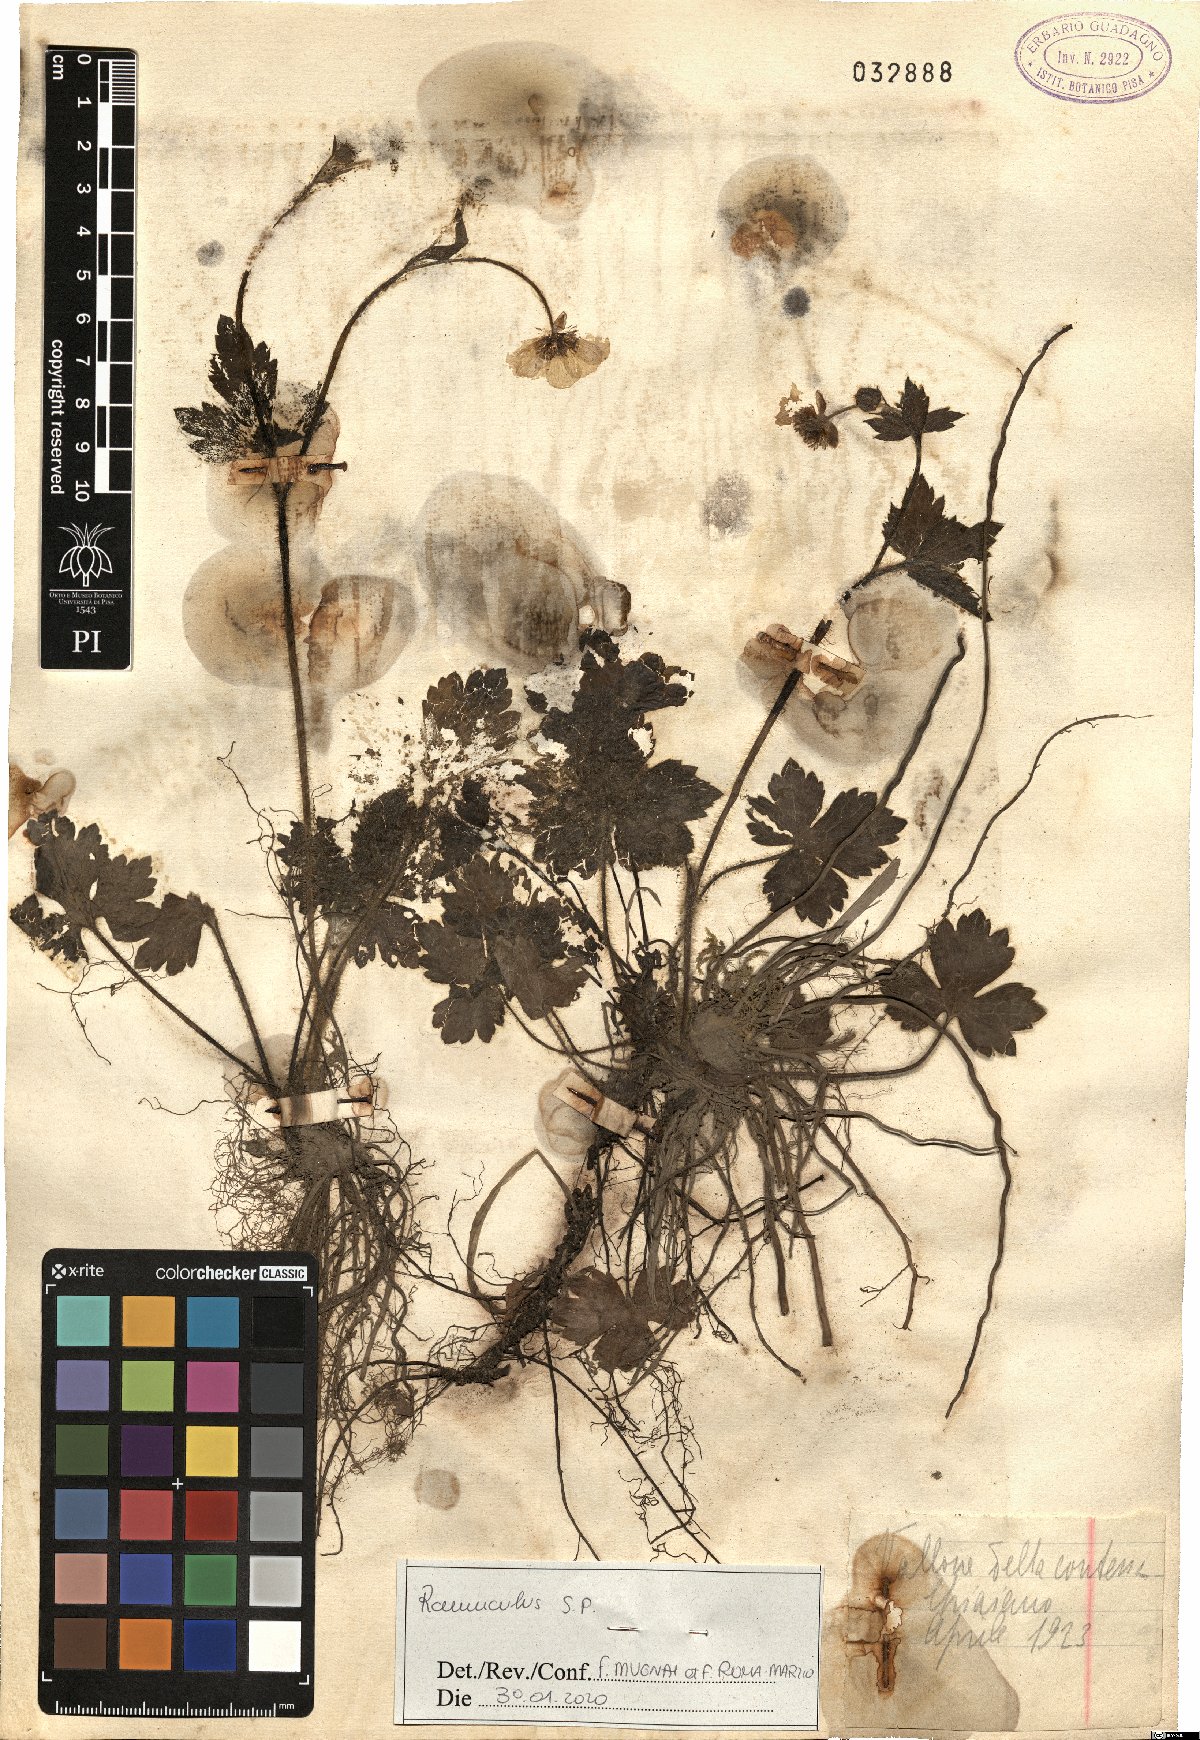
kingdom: Plantae
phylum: Tracheophyta
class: Magnoliopsida
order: Ranunculales
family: Ranunculaceae
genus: Ranunculus
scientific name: Ranunculus
